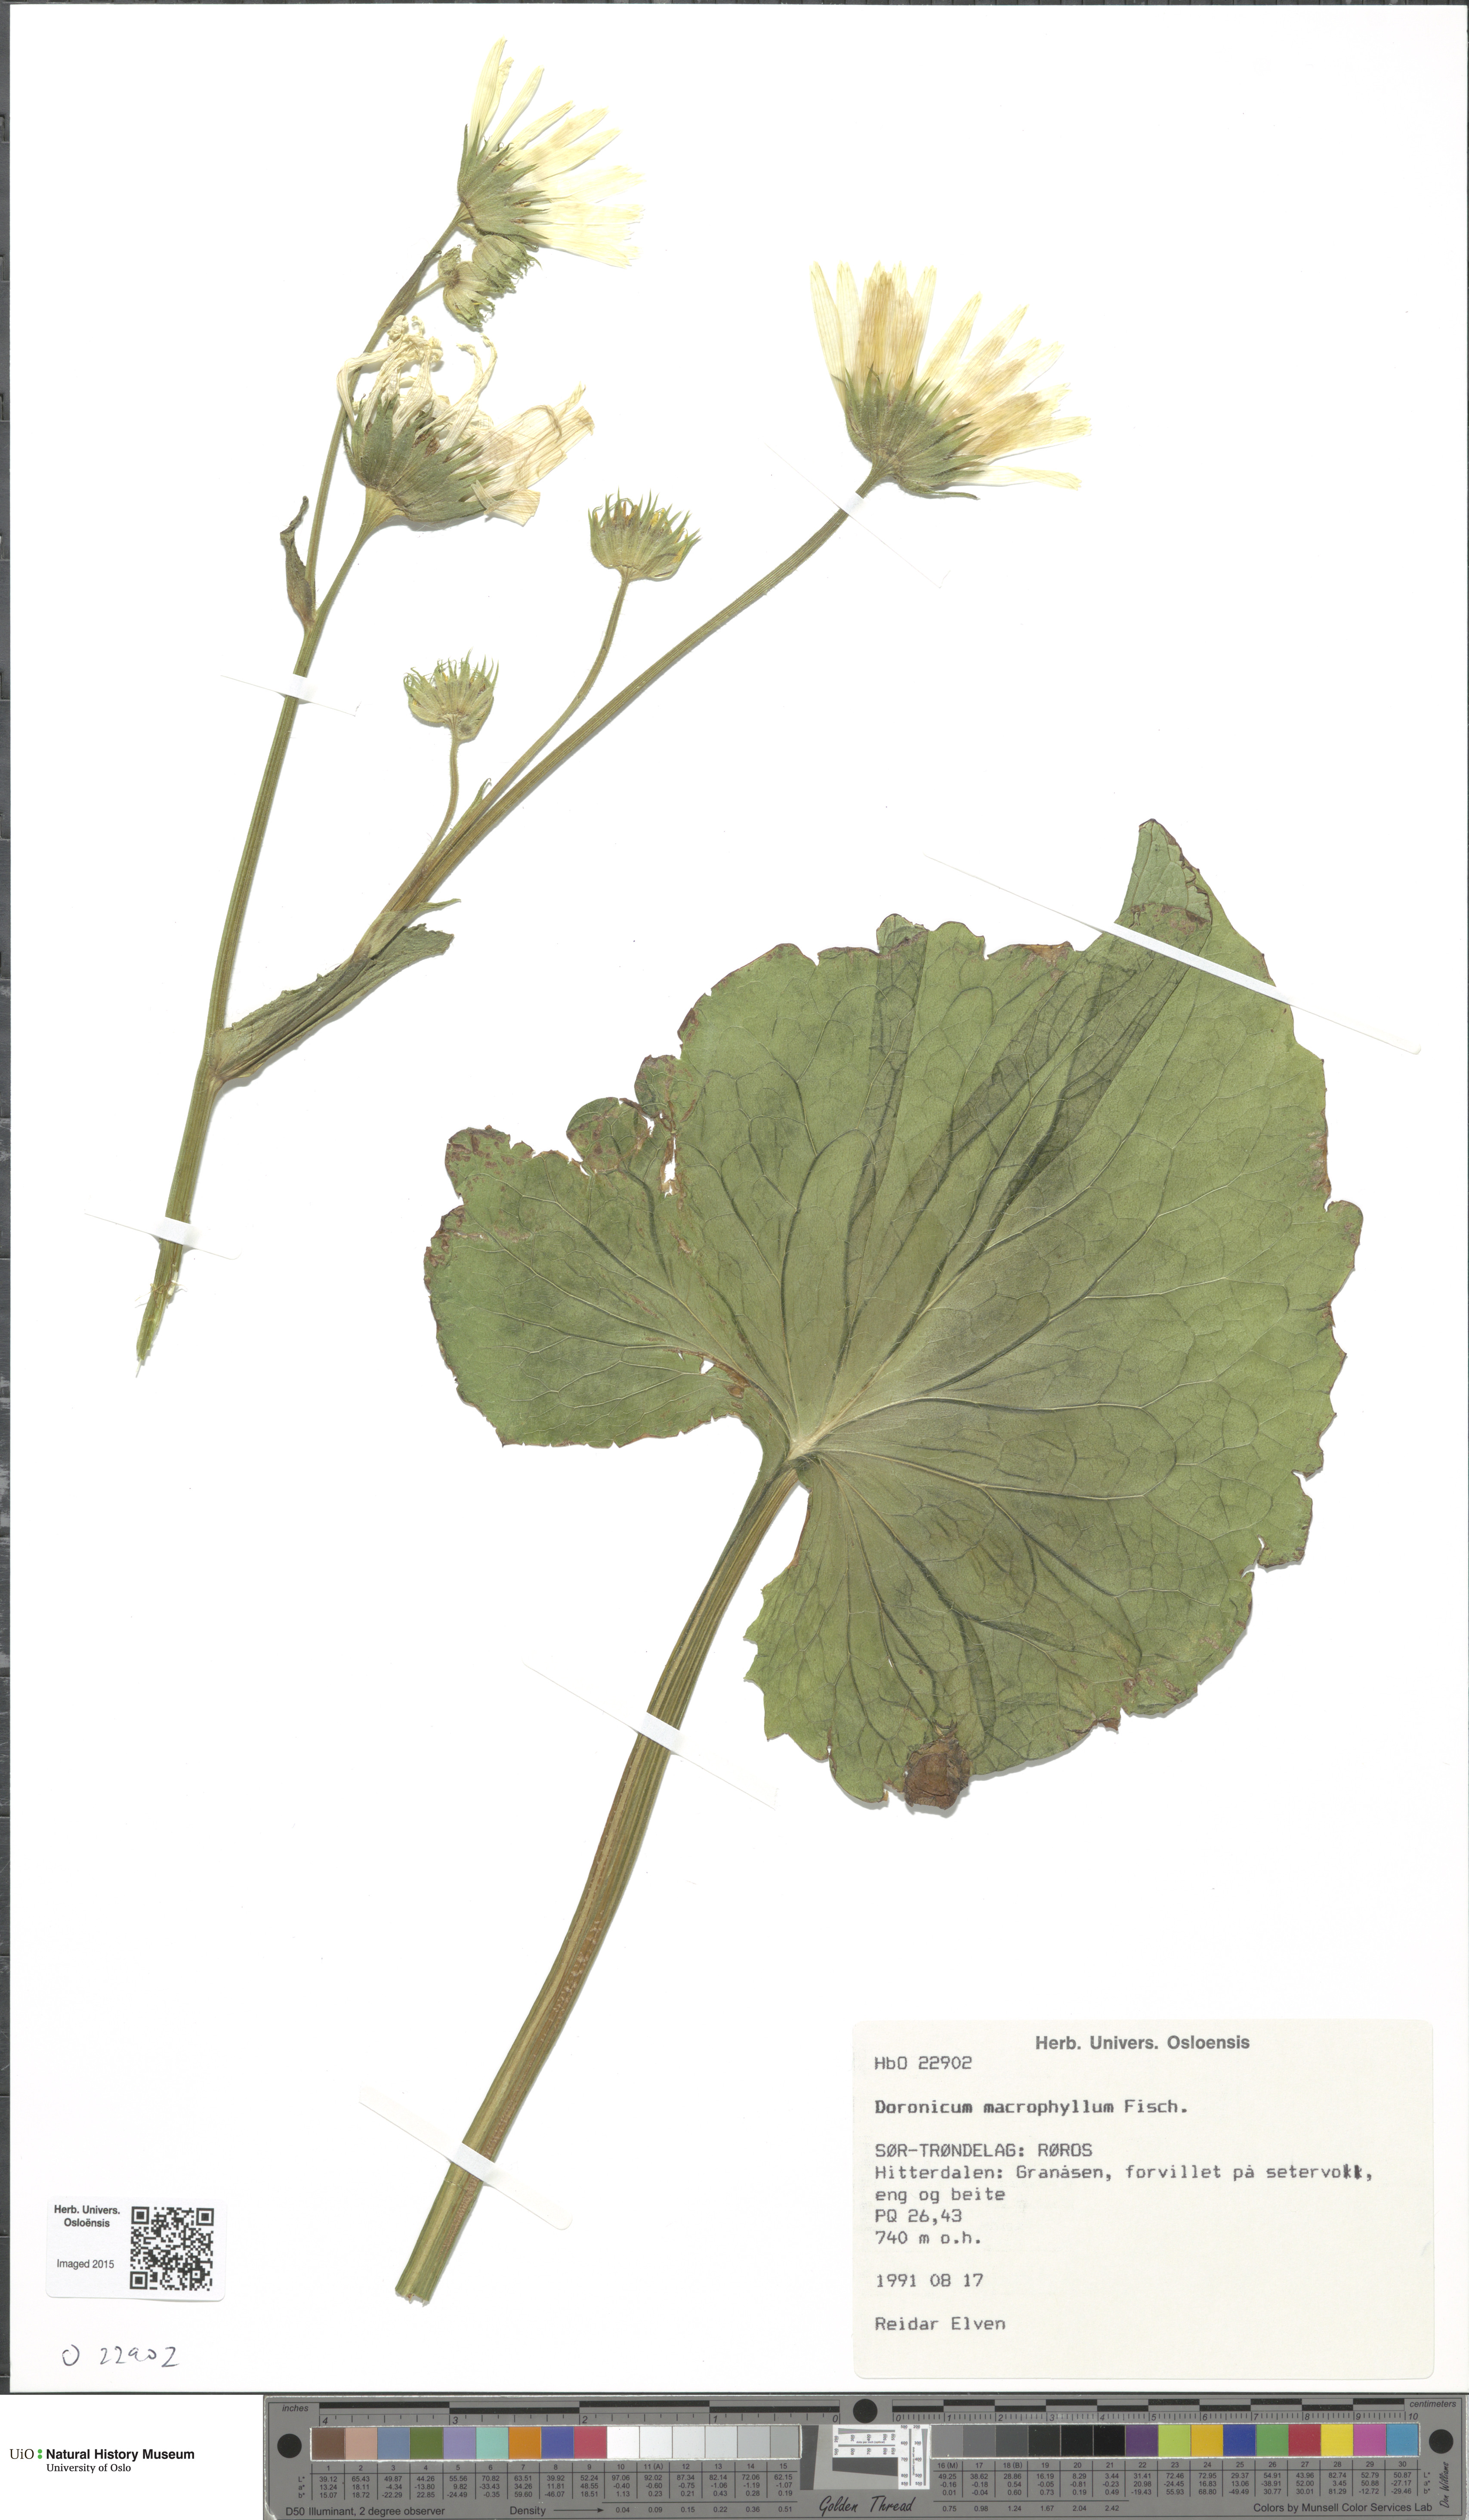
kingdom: Plantae
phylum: Tracheophyta
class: Magnoliopsida
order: Asterales
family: Asteraceae
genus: Doronicum
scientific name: Doronicum macrophyllum
